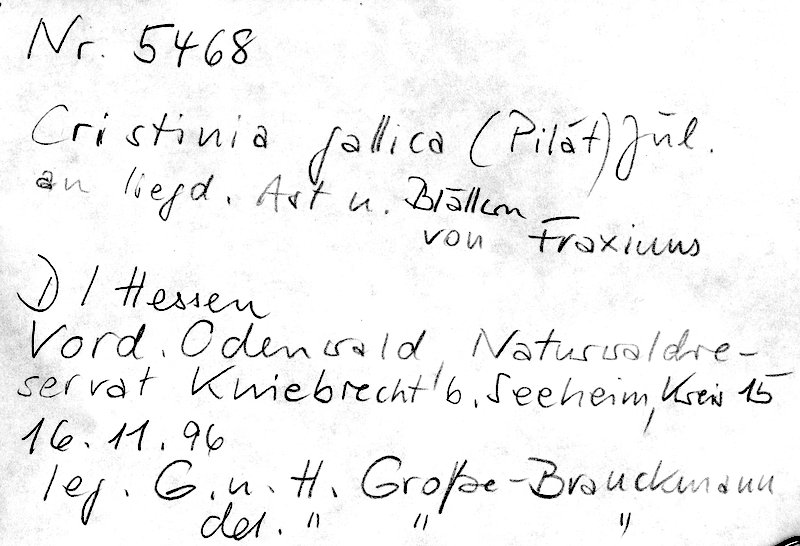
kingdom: Plantae
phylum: Tracheophyta
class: Magnoliopsida
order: Lamiales
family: Oleaceae
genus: Fraxinus
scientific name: Fraxinus
